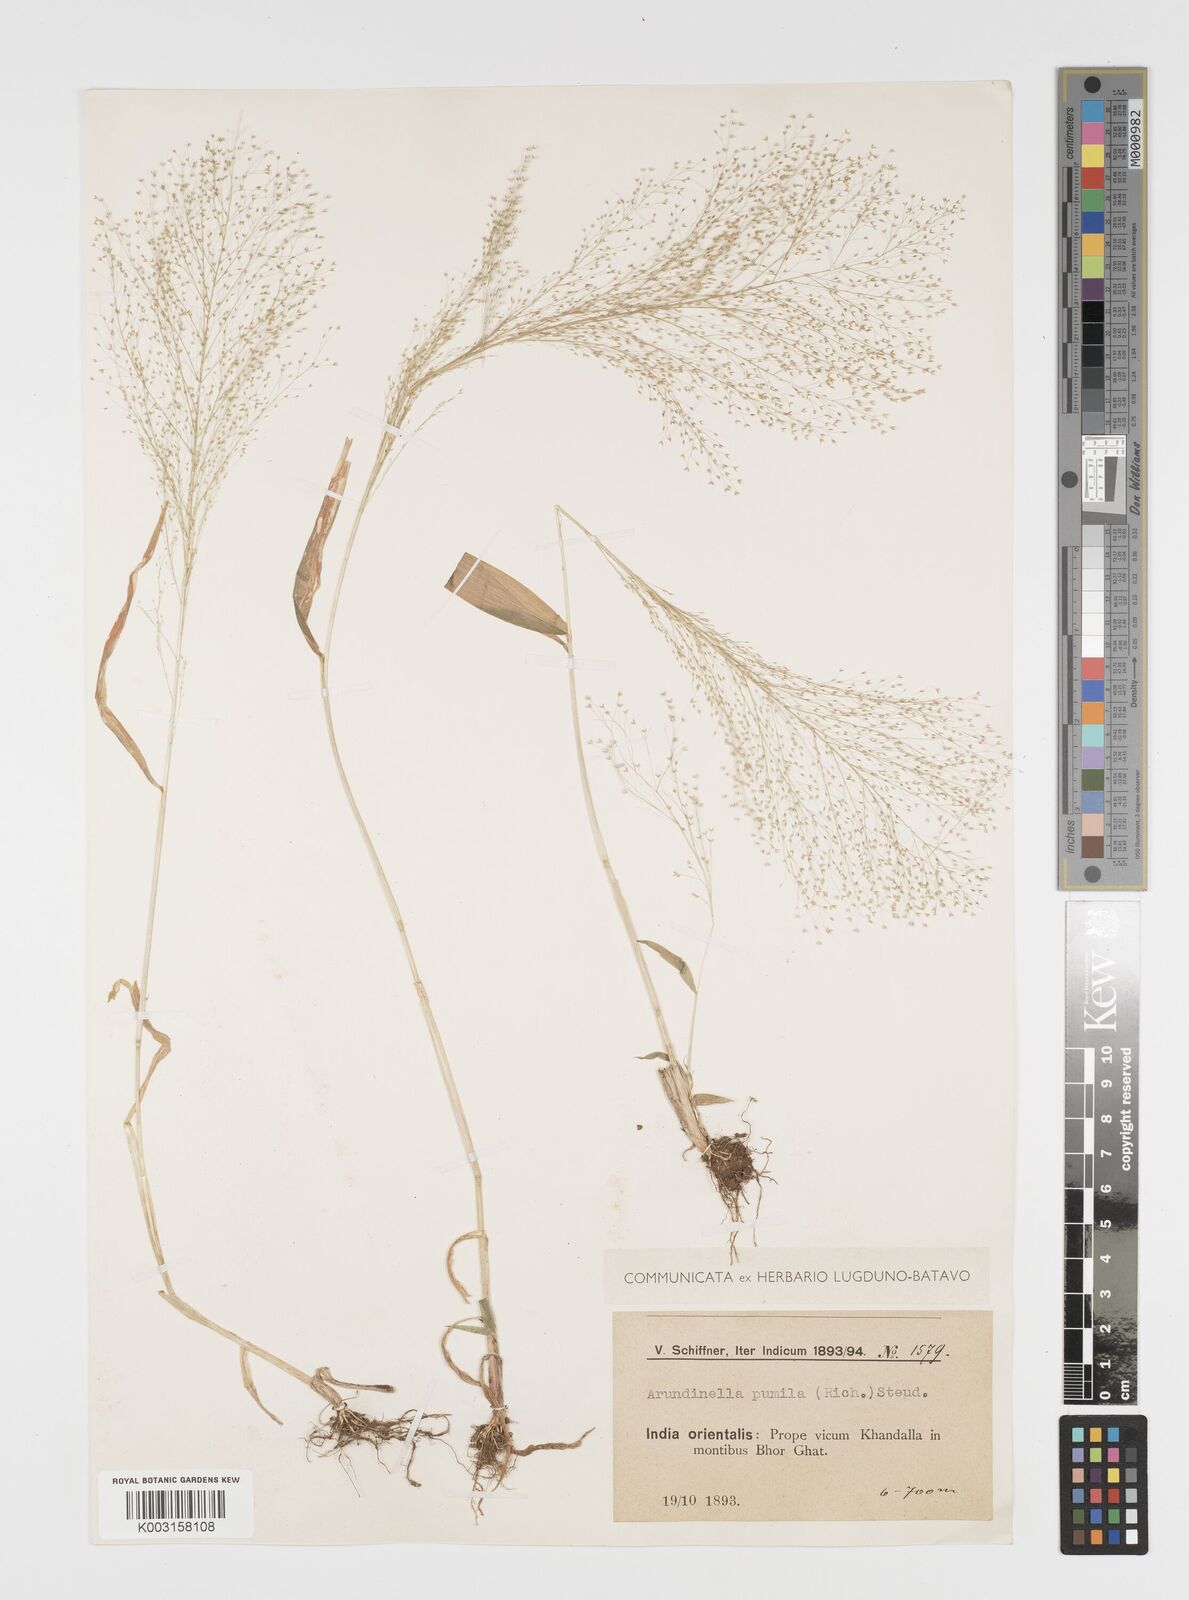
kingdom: Plantae
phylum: Tracheophyta
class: Liliopsida
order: Poales
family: Poaceae
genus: Arundinella
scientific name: Arundinella pumila
